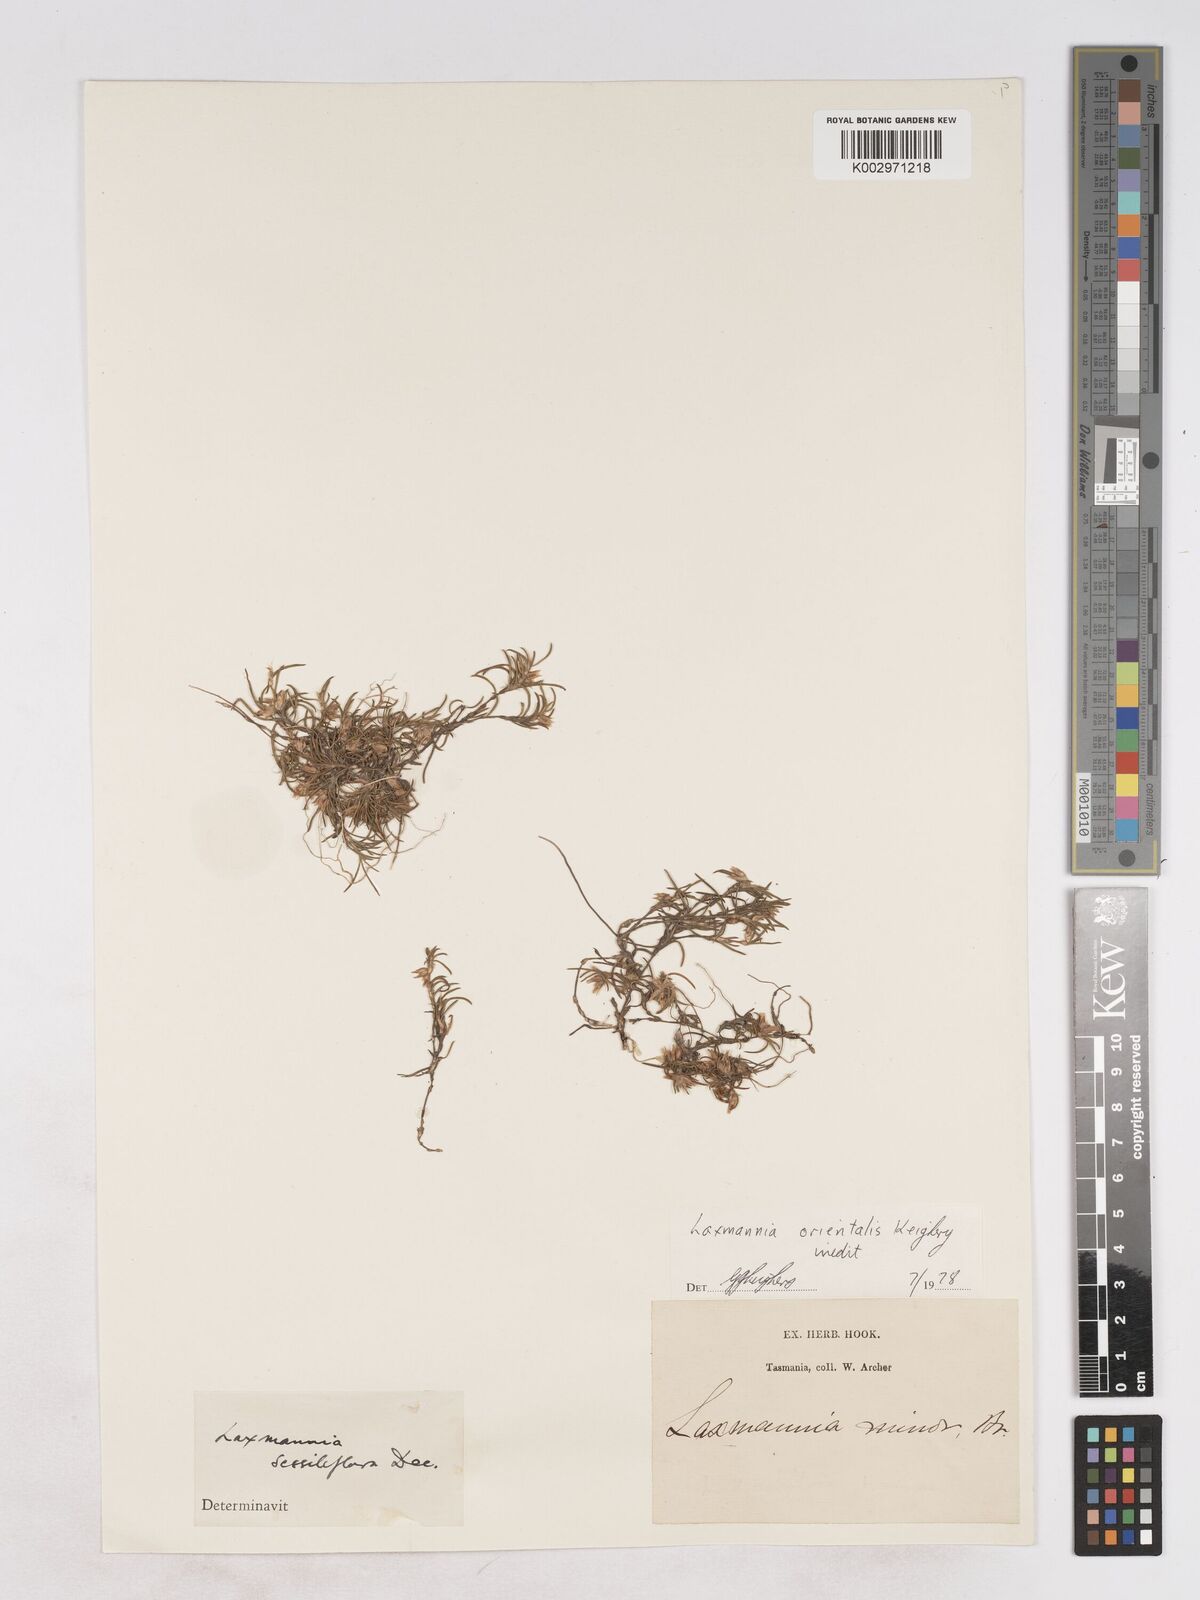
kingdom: Plantae
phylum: Tracheophyta
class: Liliopsida
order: Asparagales
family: Asparagaceae
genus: Laxmannia
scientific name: Laxmannia orientalis
